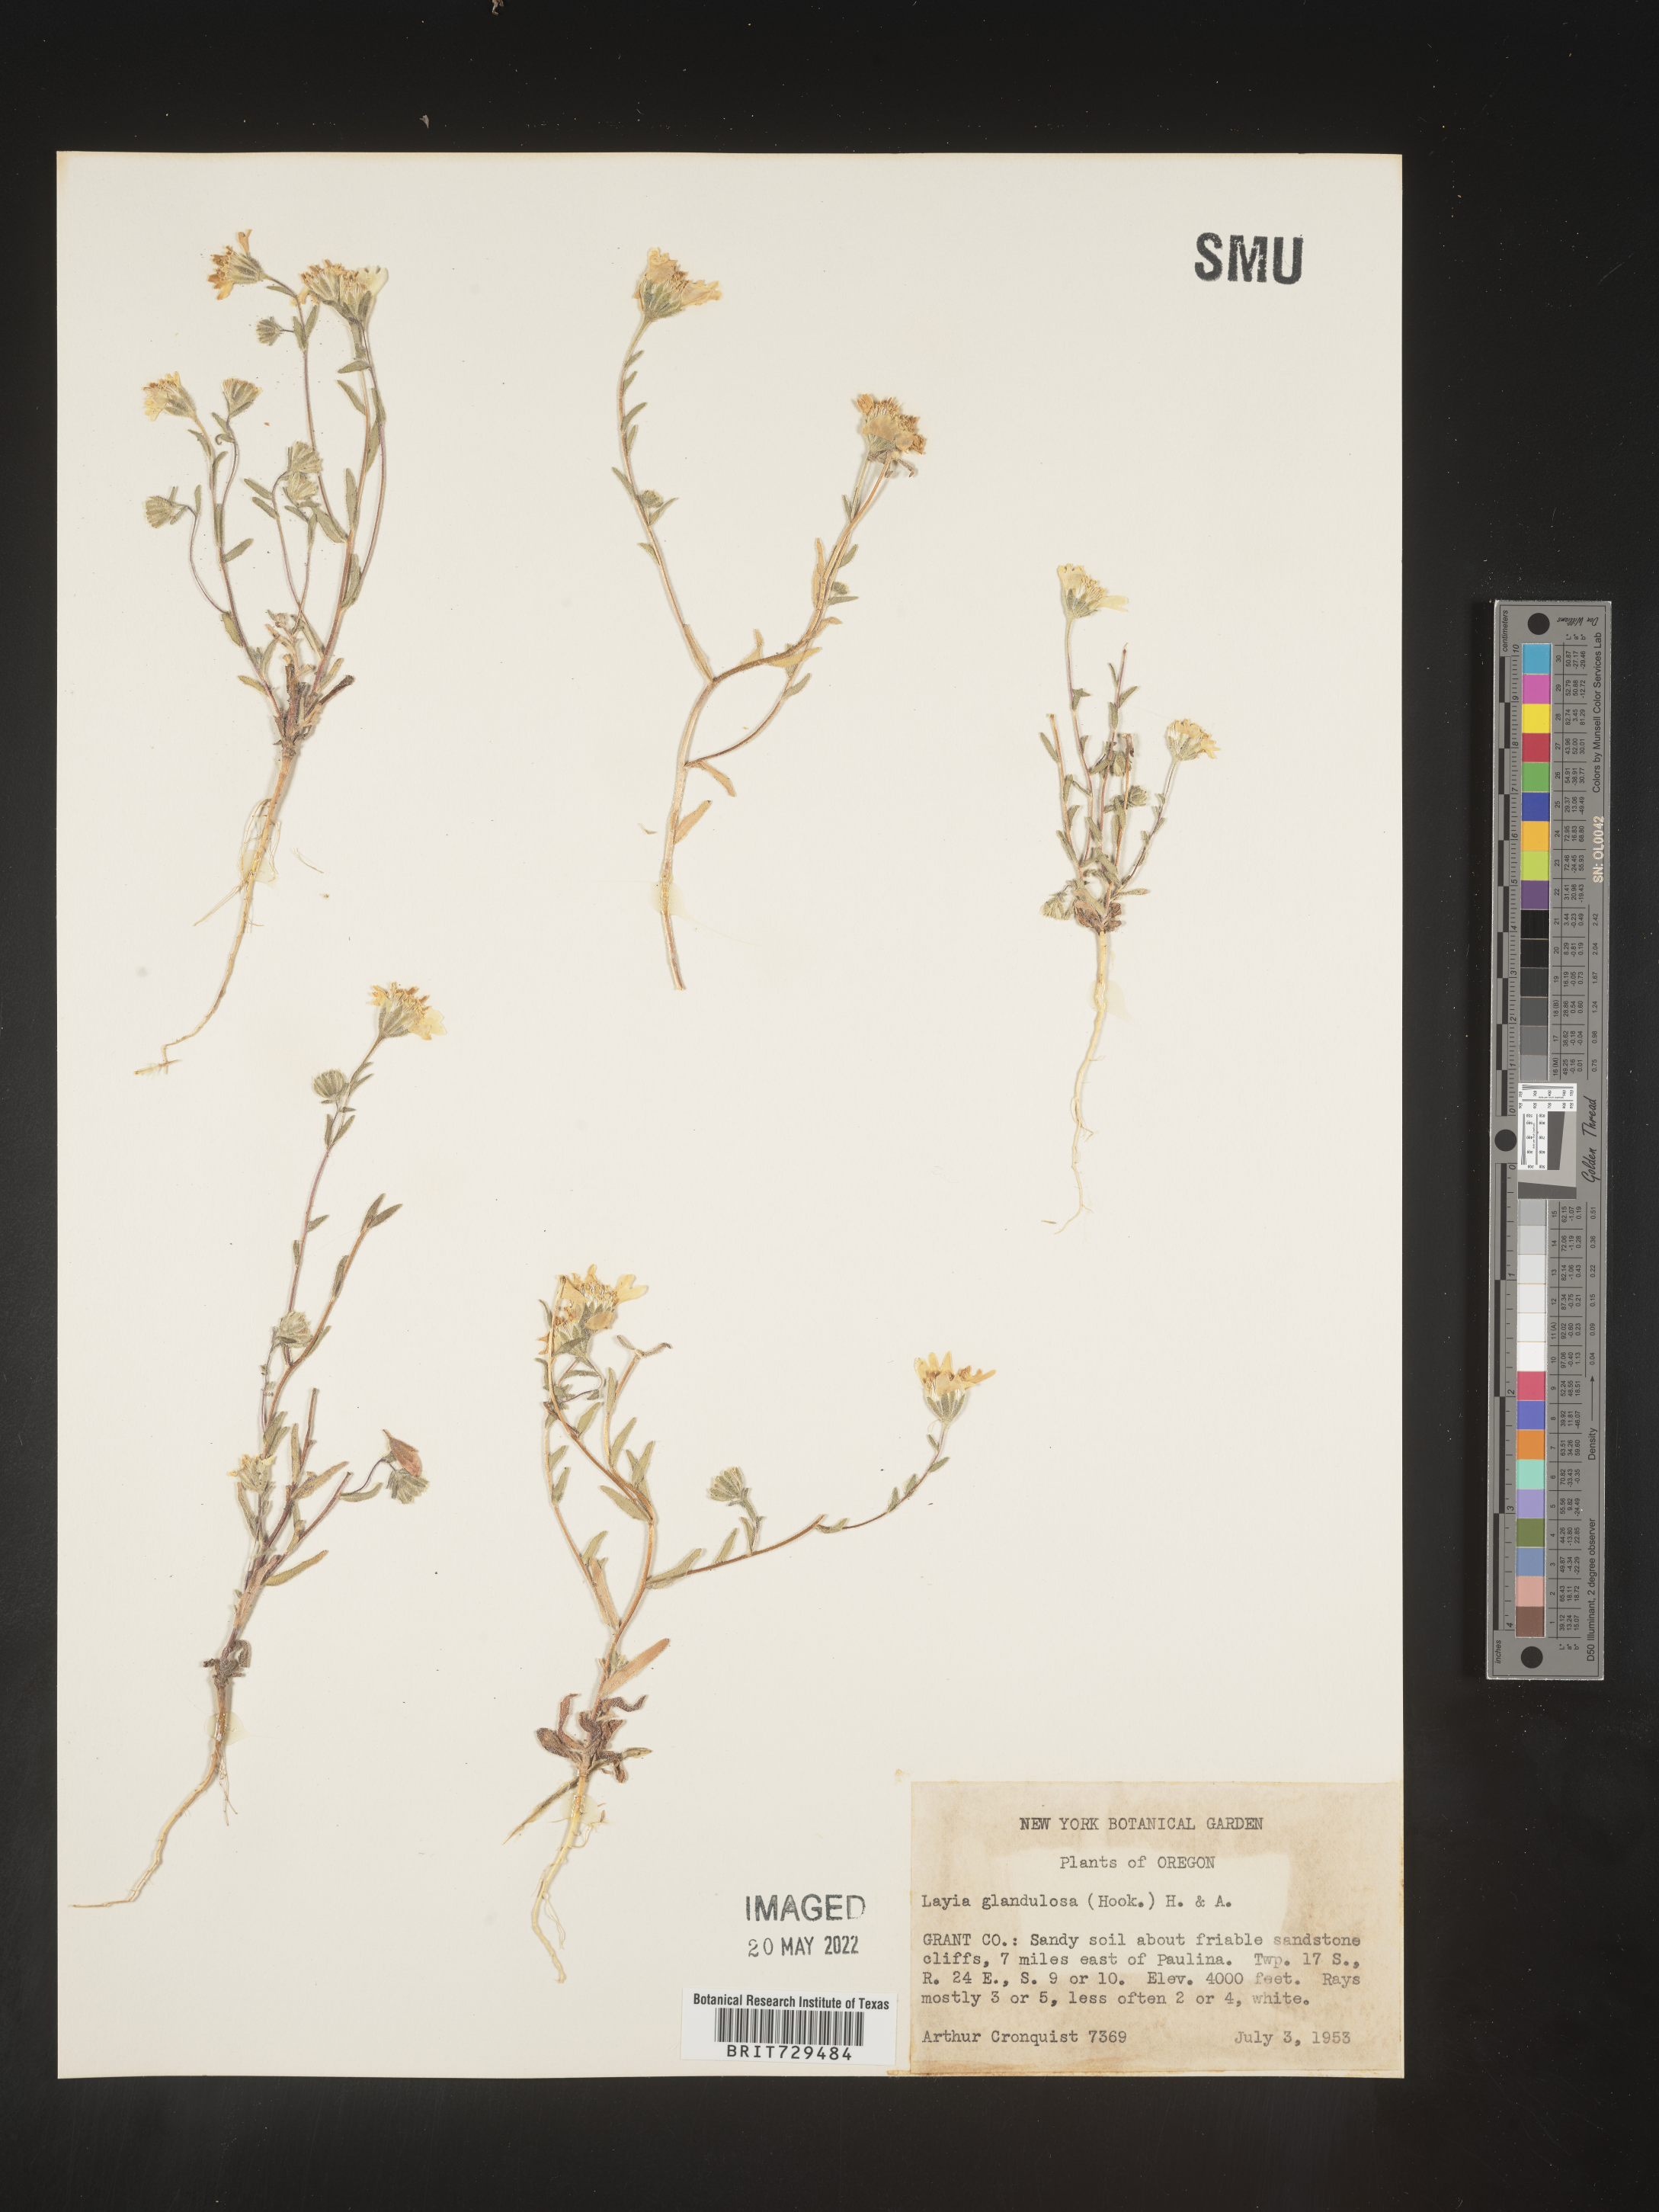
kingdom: Plantae
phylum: Tracheophyta
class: Magnoliopsida
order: Asterales
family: Asteraceae
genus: Layia
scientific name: Layia
